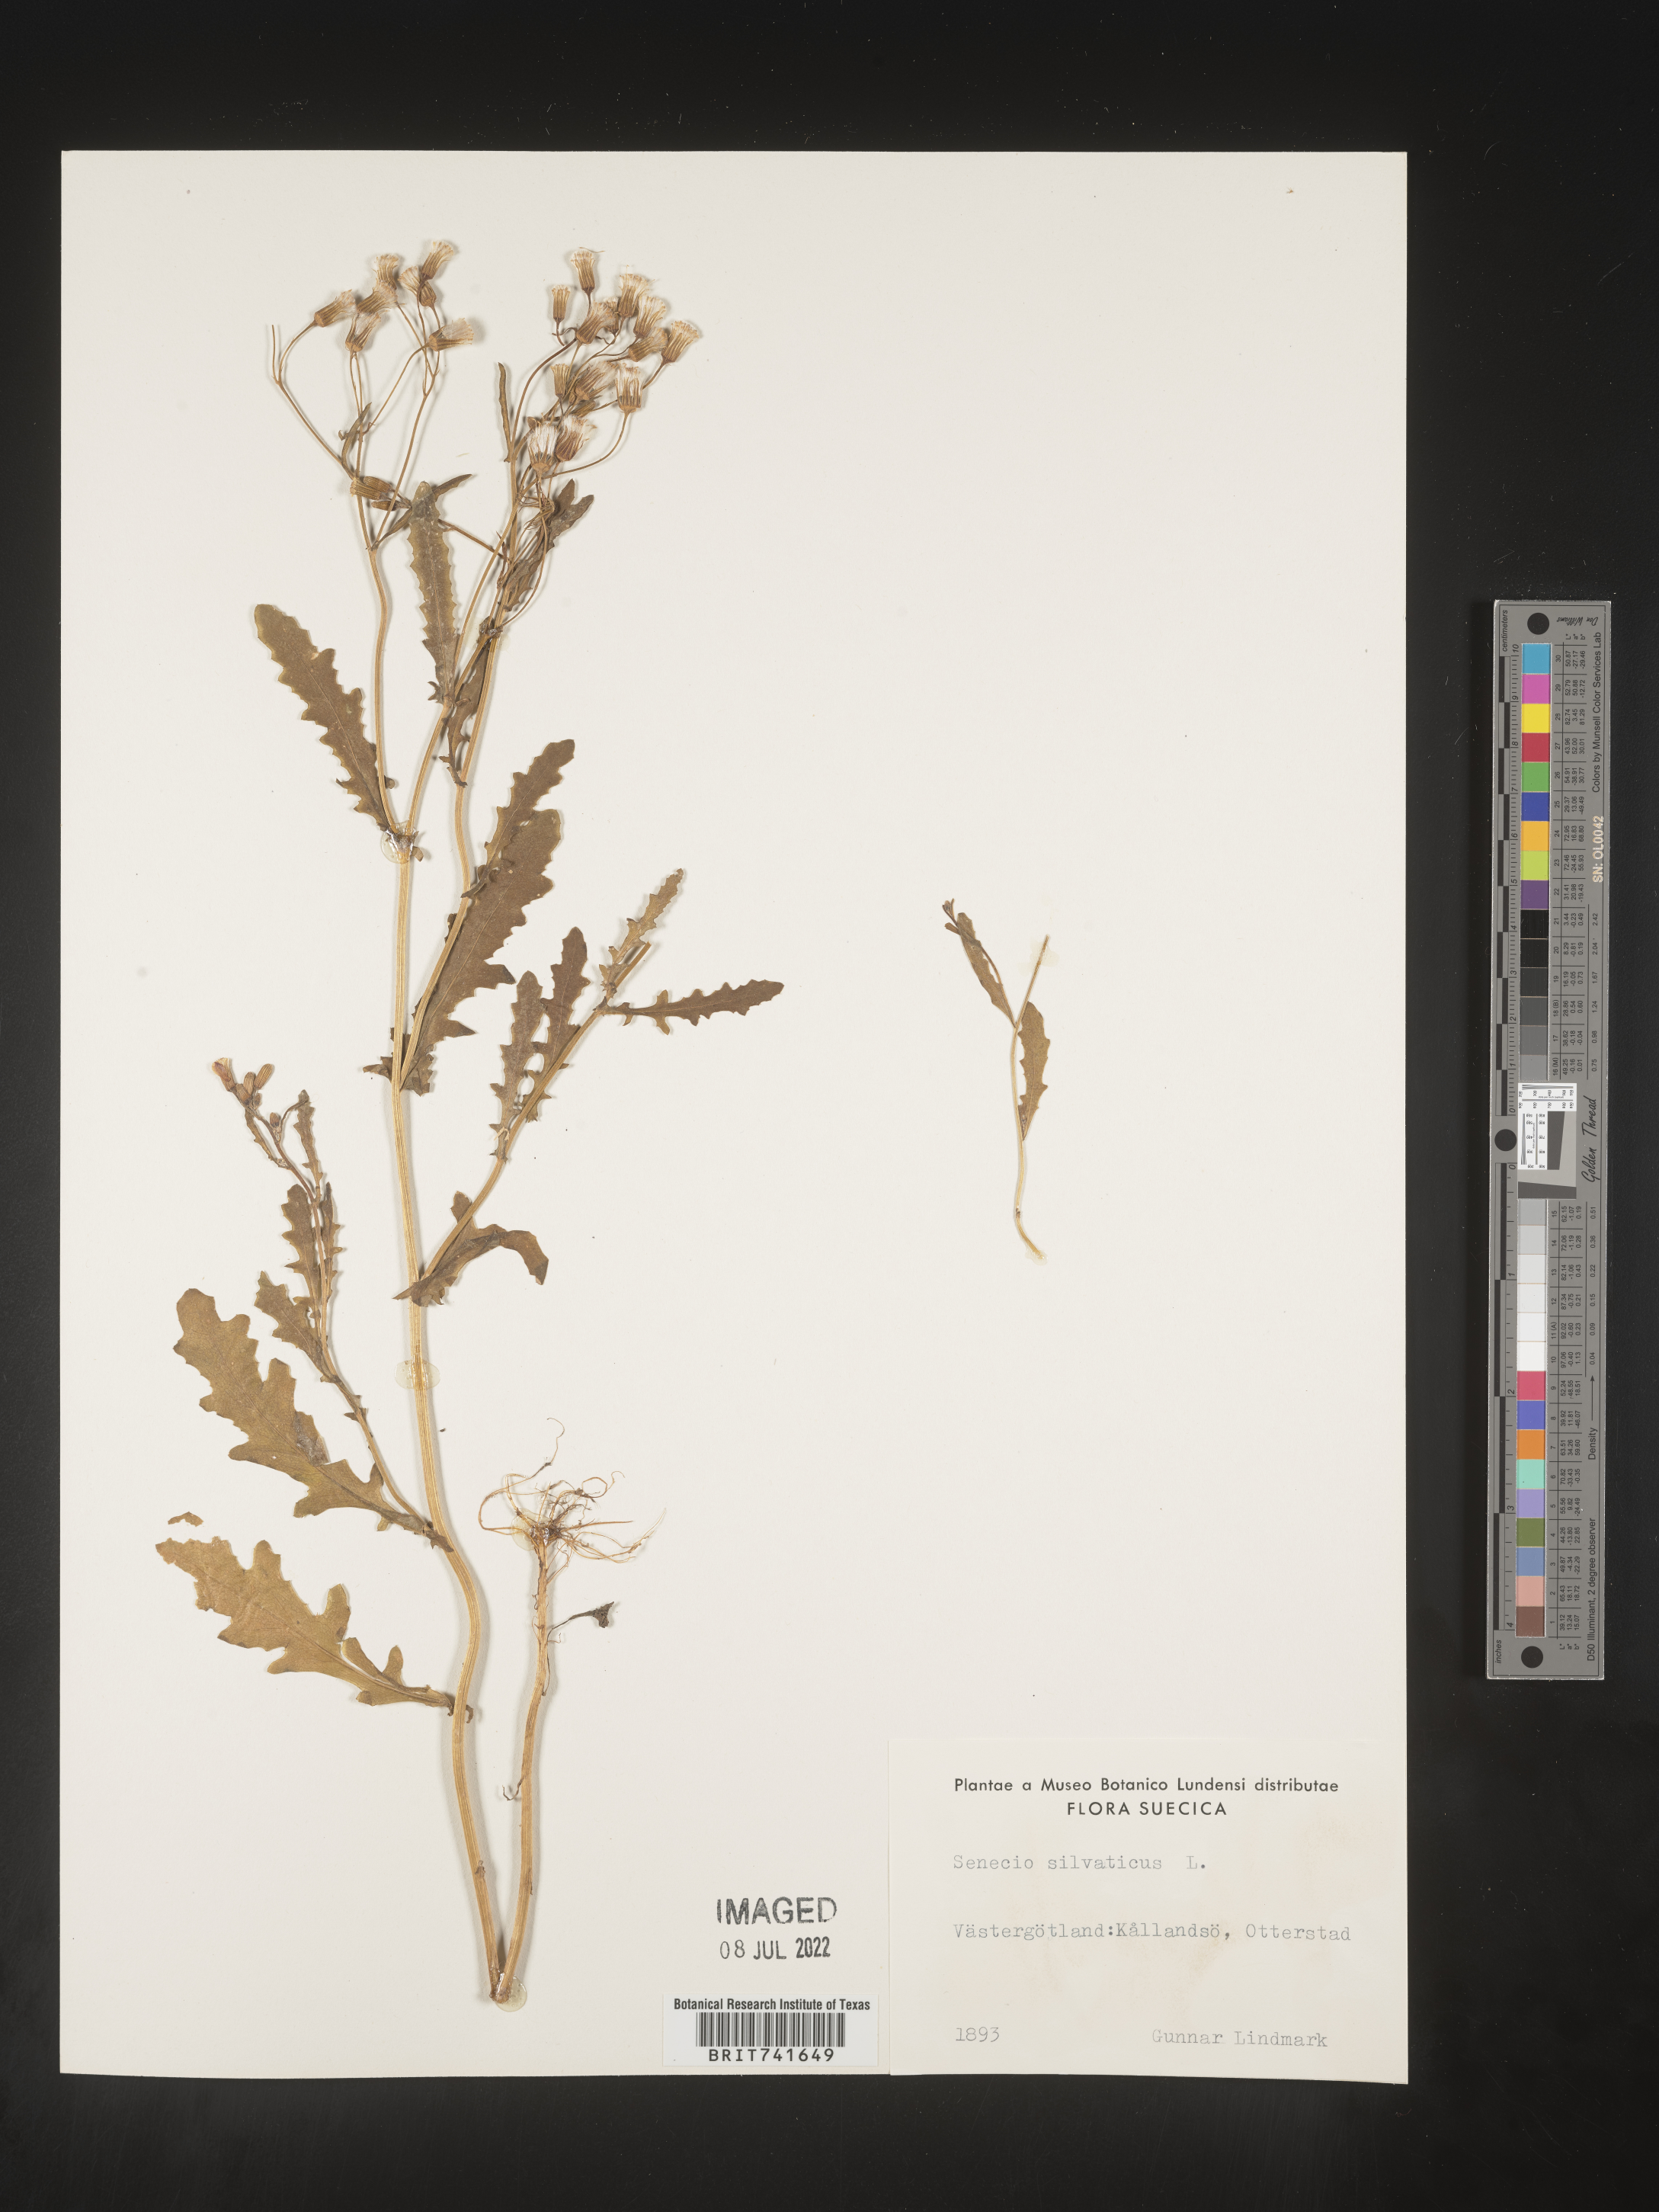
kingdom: Plantae
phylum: Tracheophyta
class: Magnoliopsida
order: Asterales
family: Asteraceae
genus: Senecio
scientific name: Senecio
